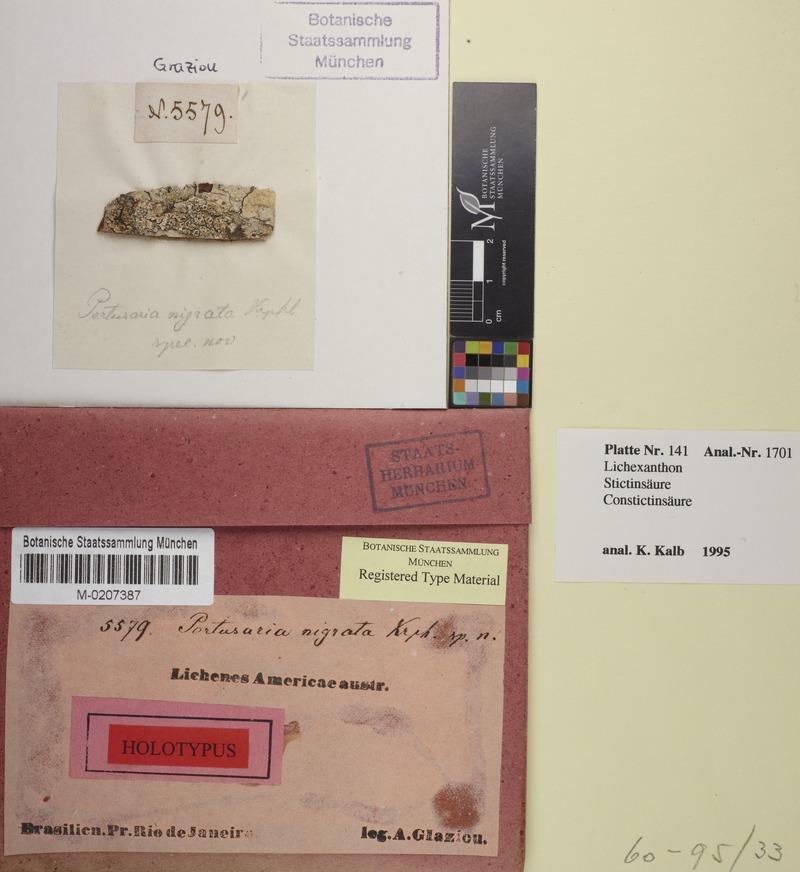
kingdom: Fungi
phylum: Ascomycota
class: Lecanoromycetes
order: Pertusariales
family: Pertusariaceae
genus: Pertusaria
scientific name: Pertusaria
